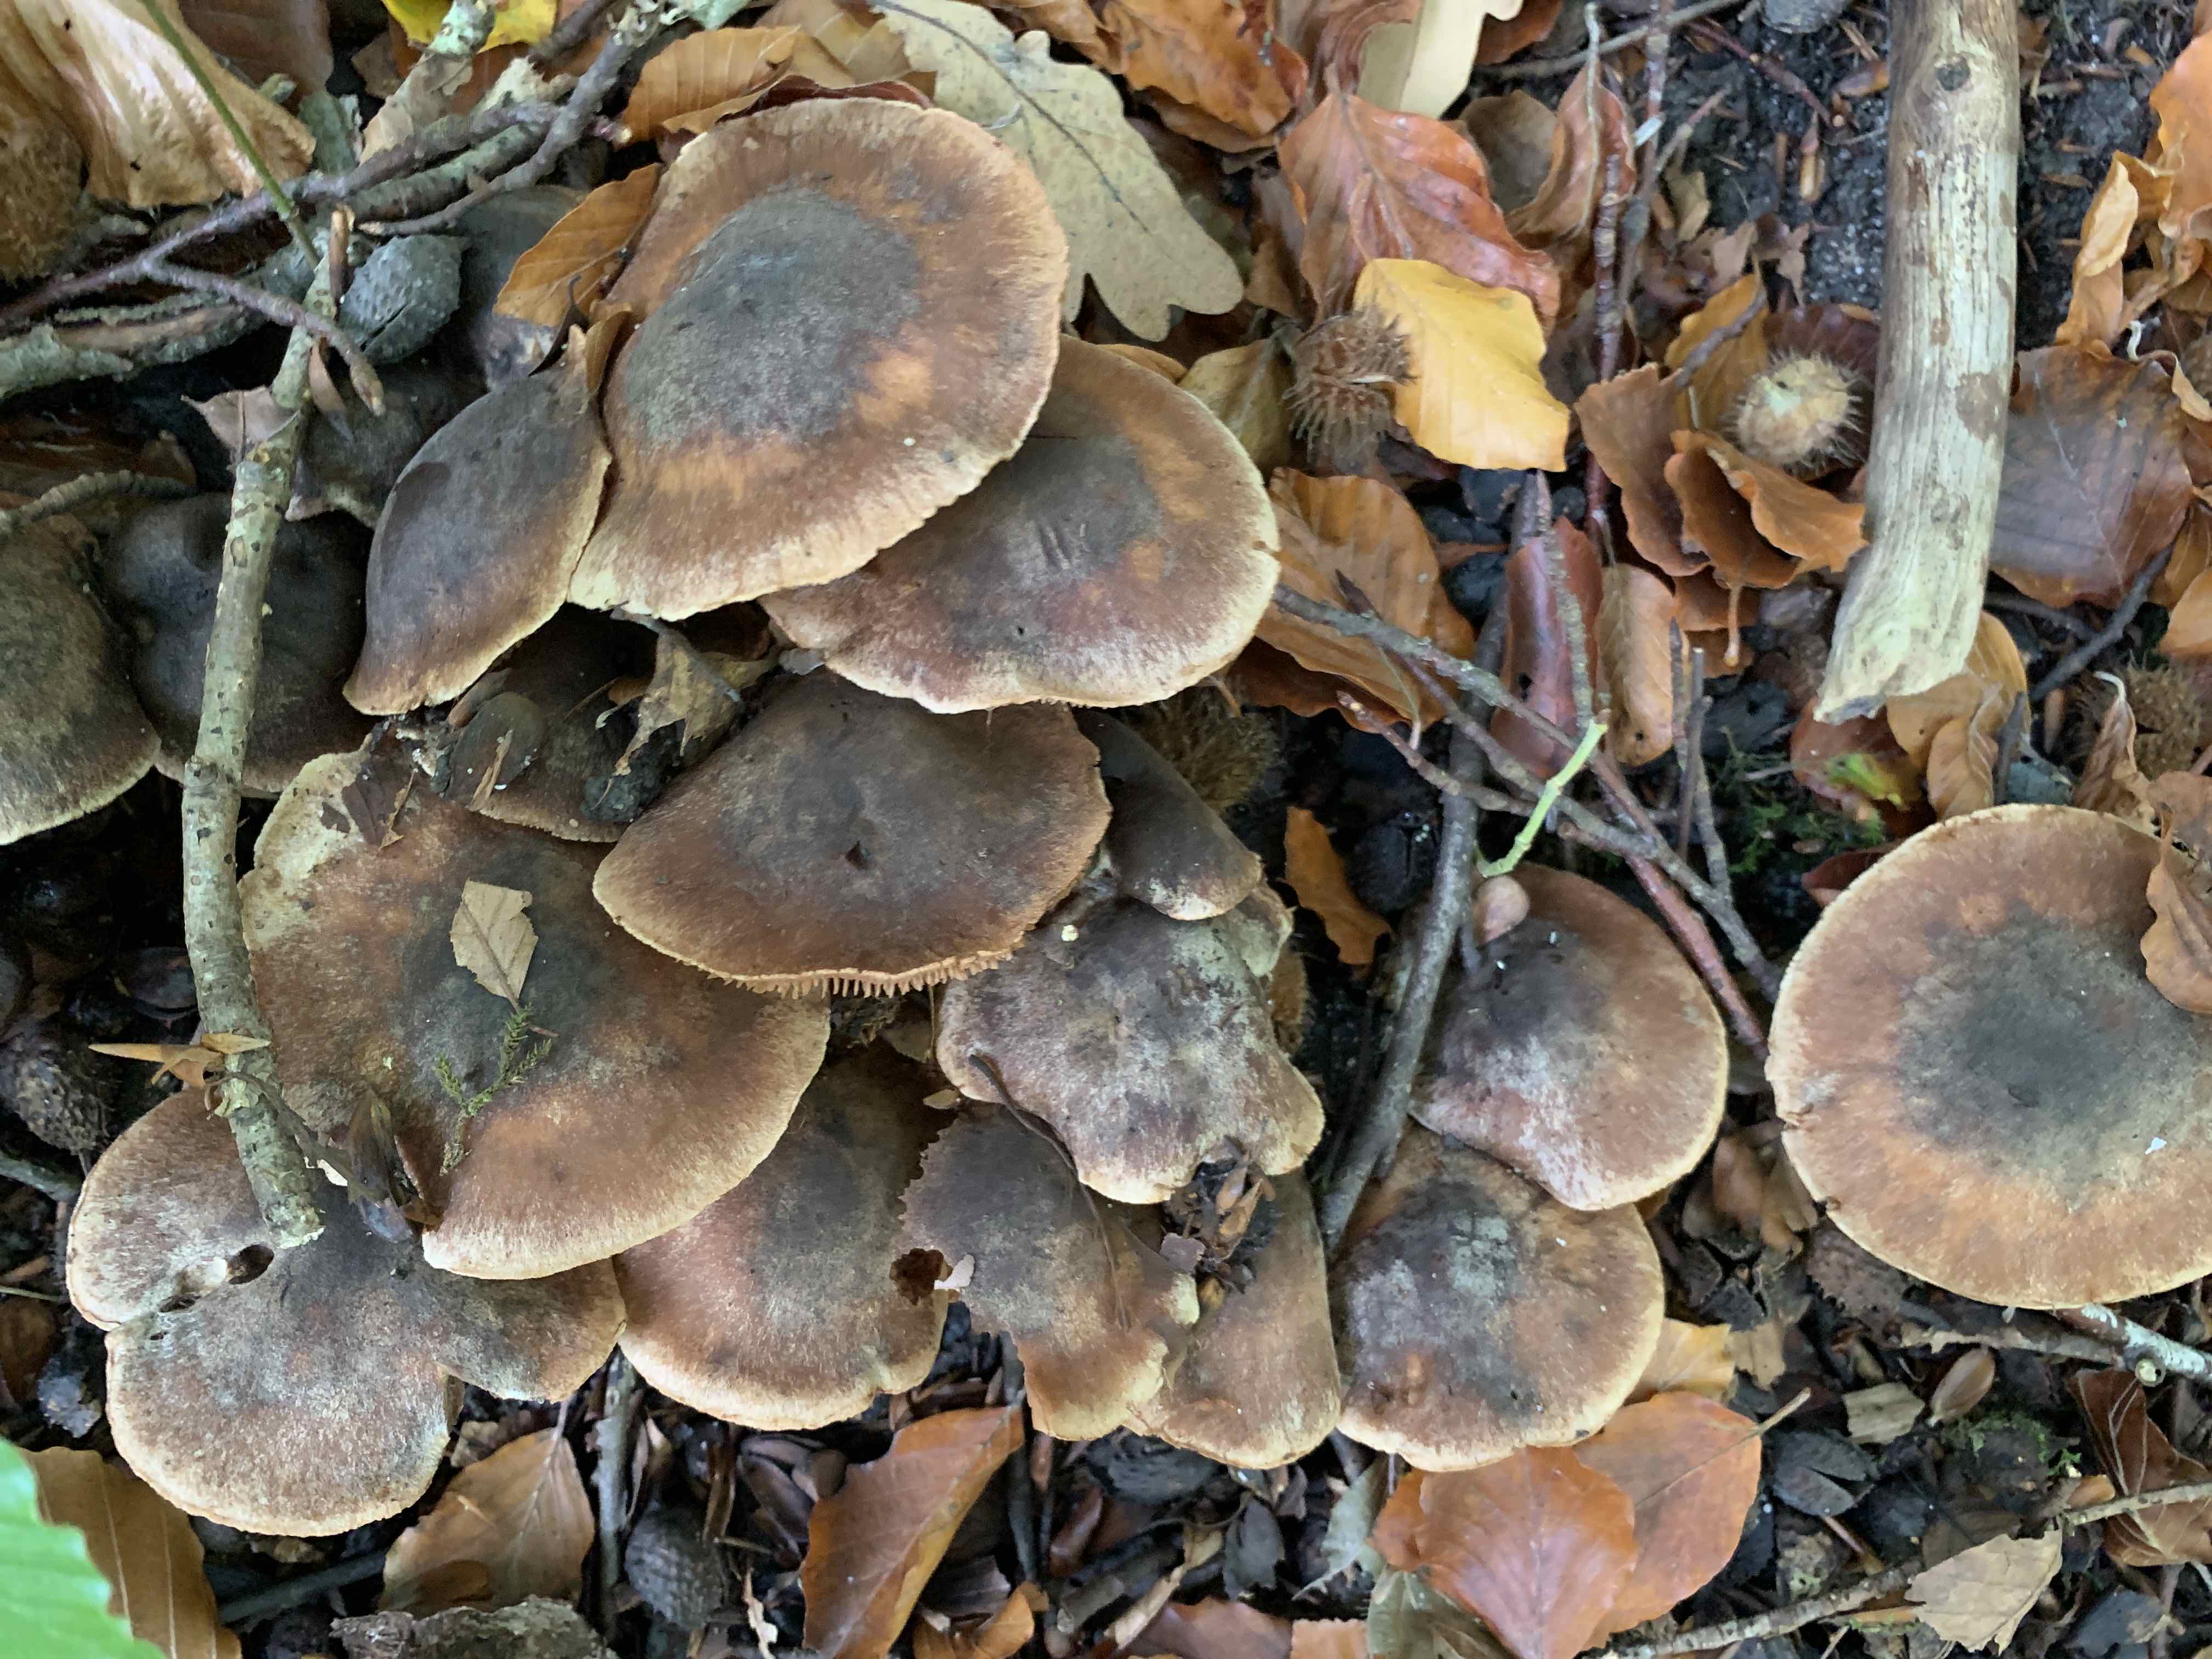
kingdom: Fungi
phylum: Basidiomycota
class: Agaricomycetes
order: Agaricales
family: Cortinariaceae
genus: Cortinarius
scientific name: Cortinarius
